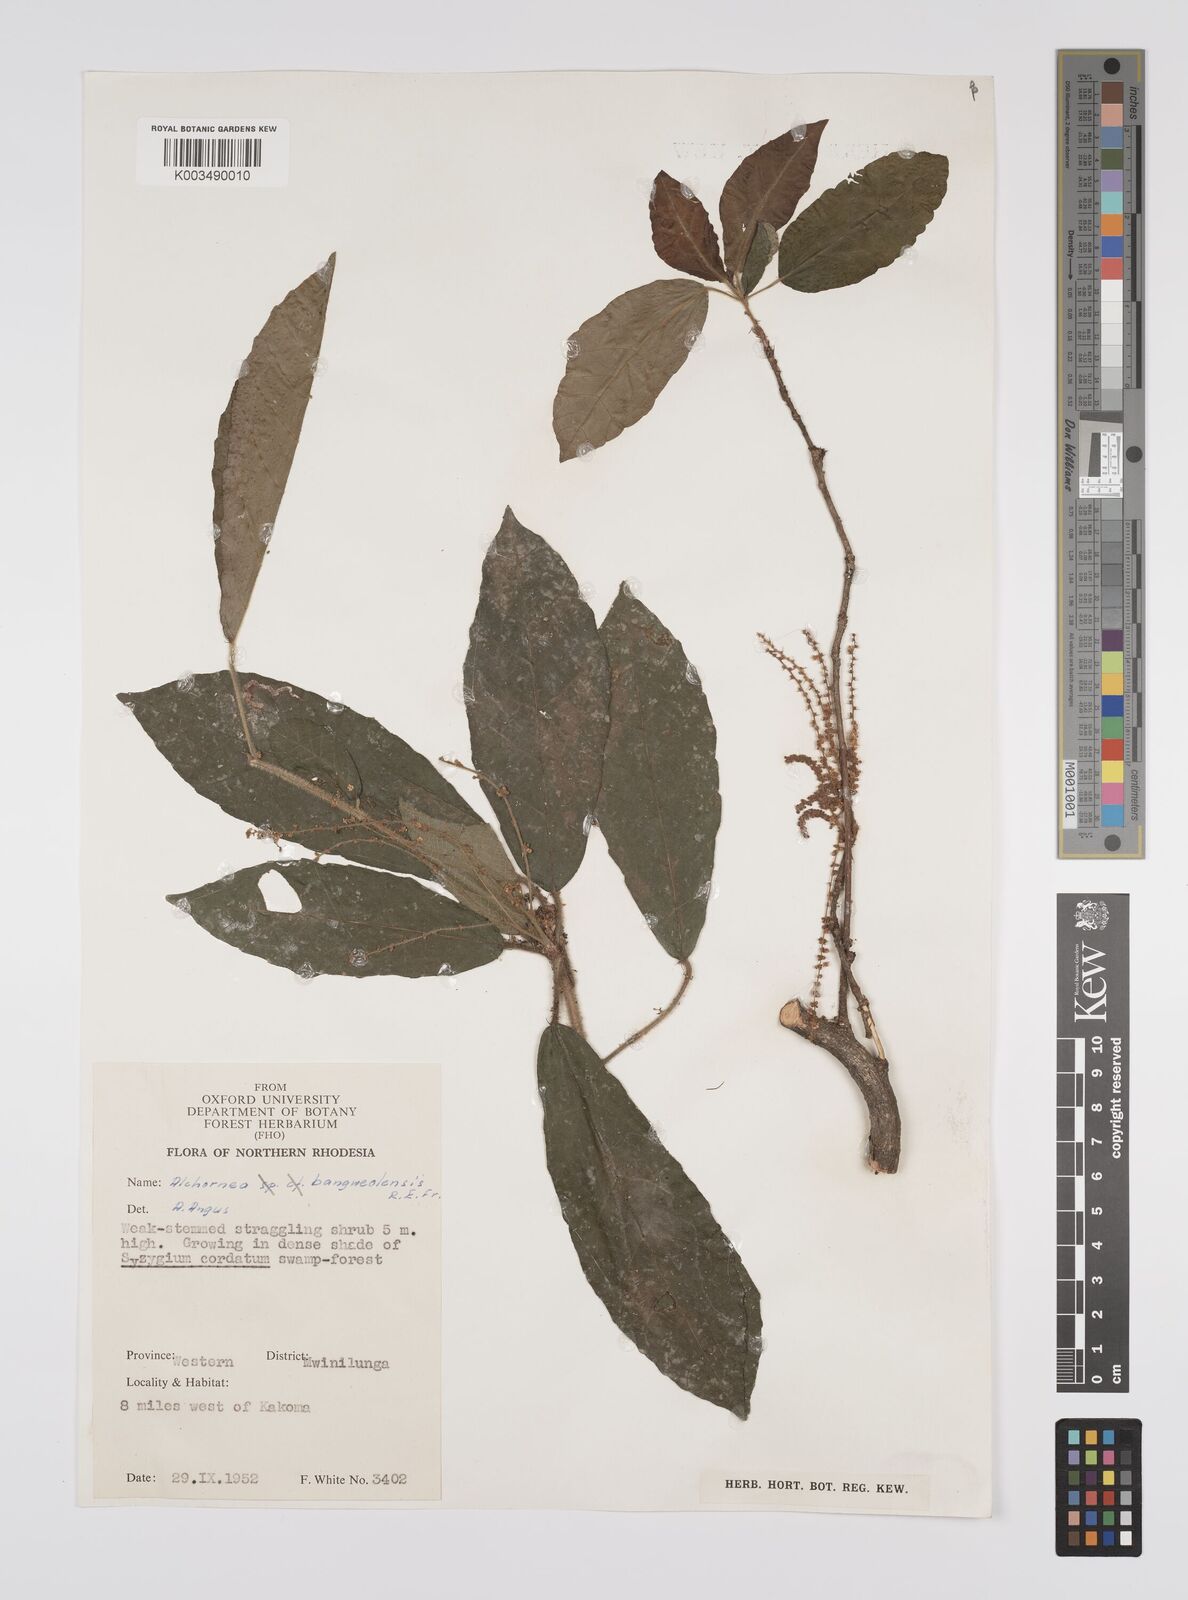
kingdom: Plantae
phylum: Tracheophyta
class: Magnoliopsida
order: Malpighiales
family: Euphorbiaceae
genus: Alchornea
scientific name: Alchornea yambuyaensis
